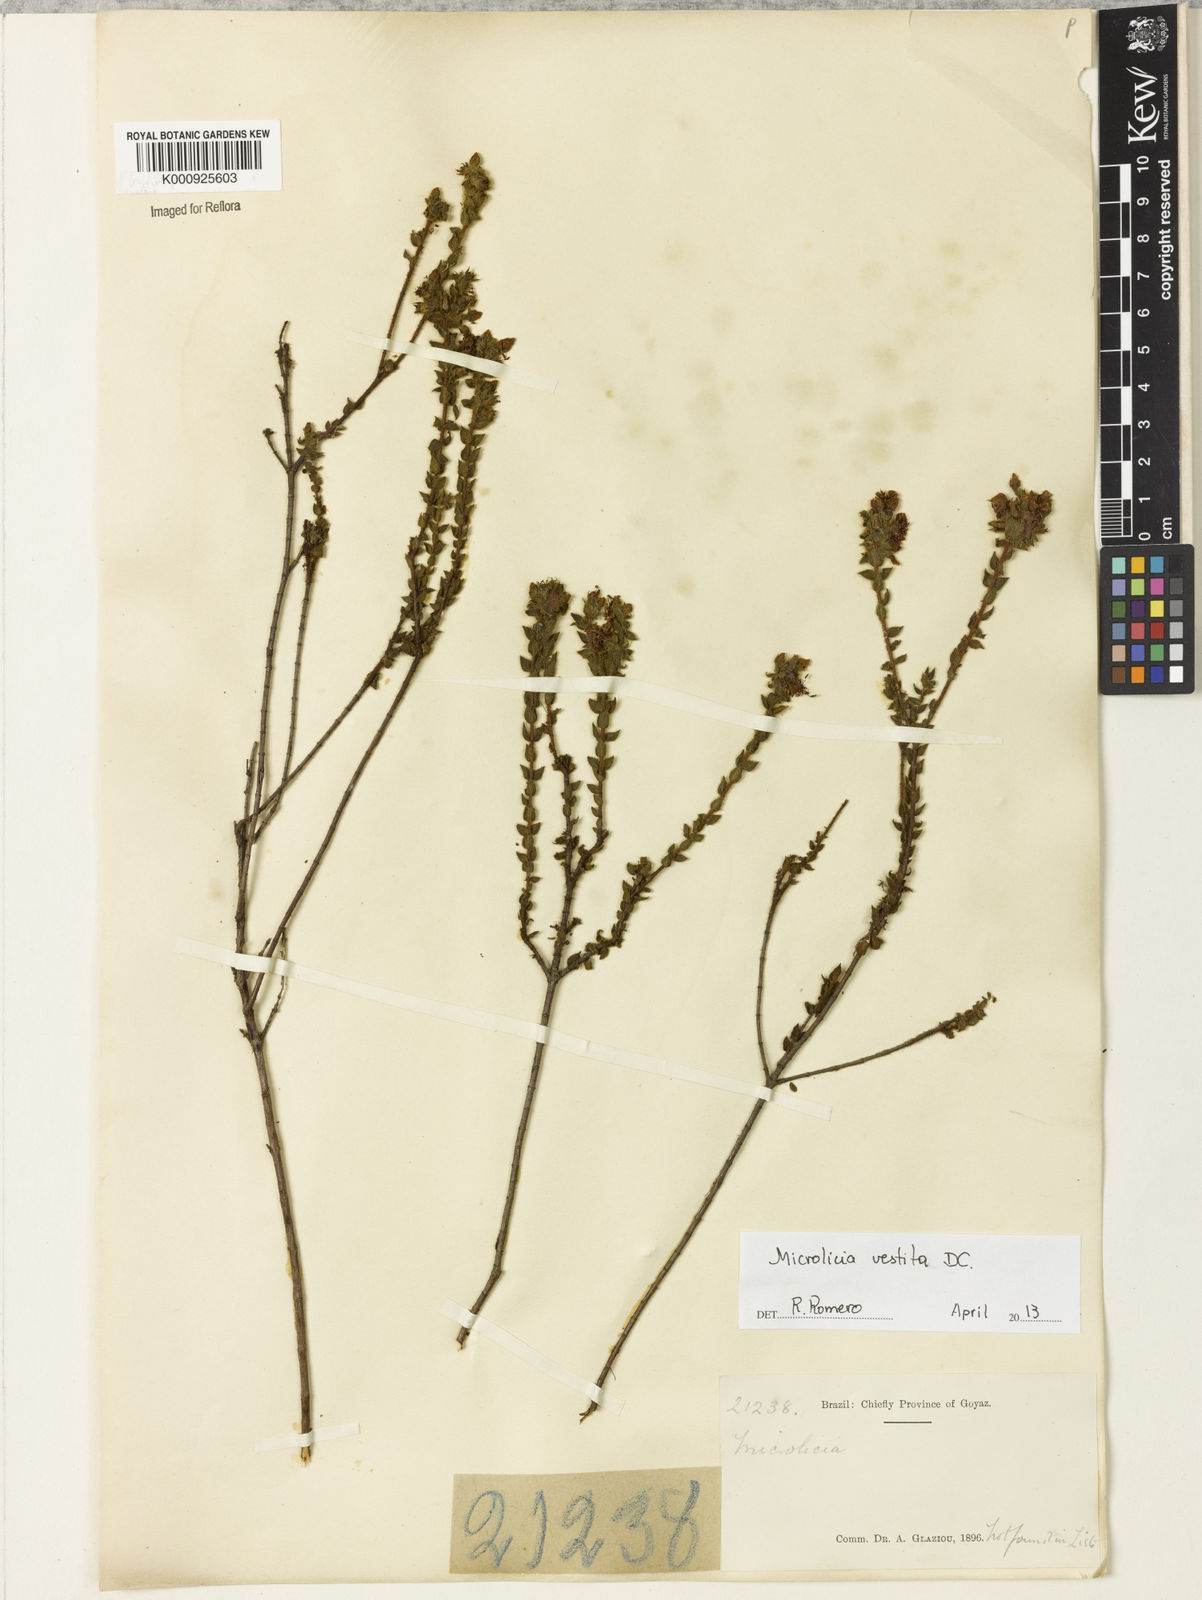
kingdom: Plantae
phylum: Tracheophyta
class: Magnoliopsida
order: Myrtales
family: Melastomataceae
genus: Microlicia
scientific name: Microlicia vestita
